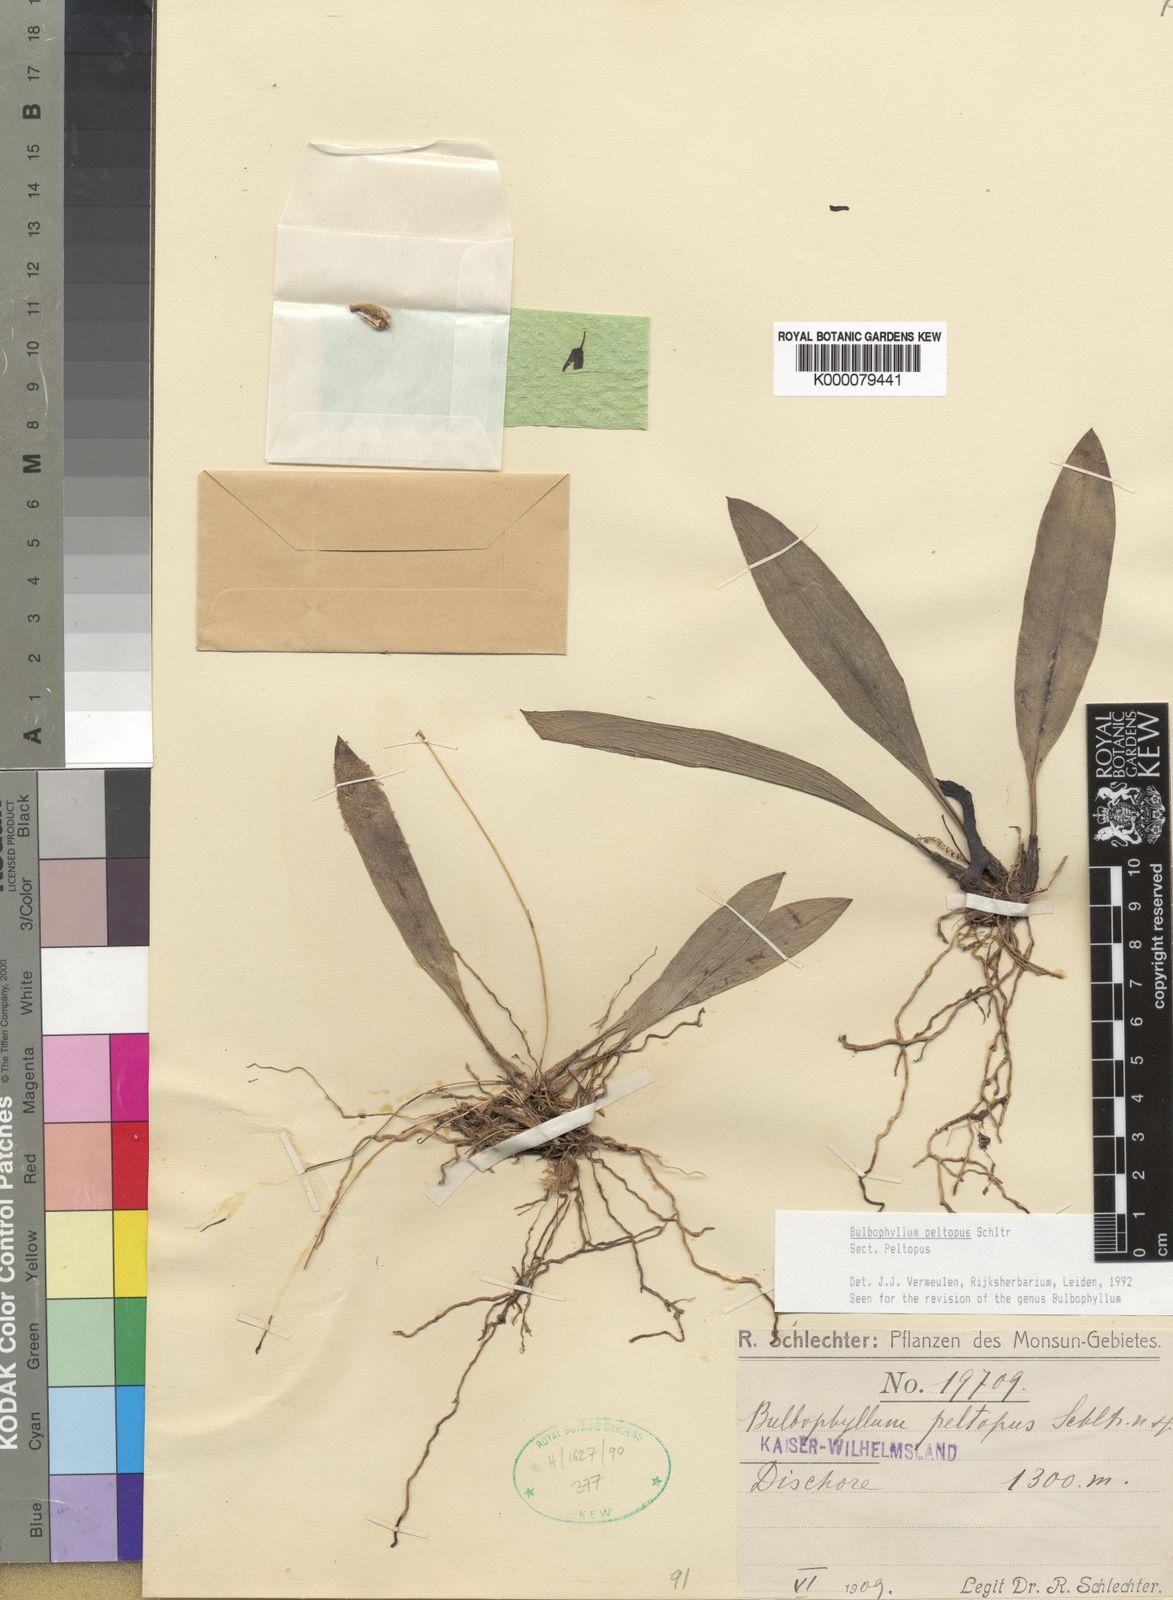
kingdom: Plantae
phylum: Tracheophyta
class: Liliopsida
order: Asparagales
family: Orchidaceae
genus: Bulbophyllum
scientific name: Bulbophyllum
